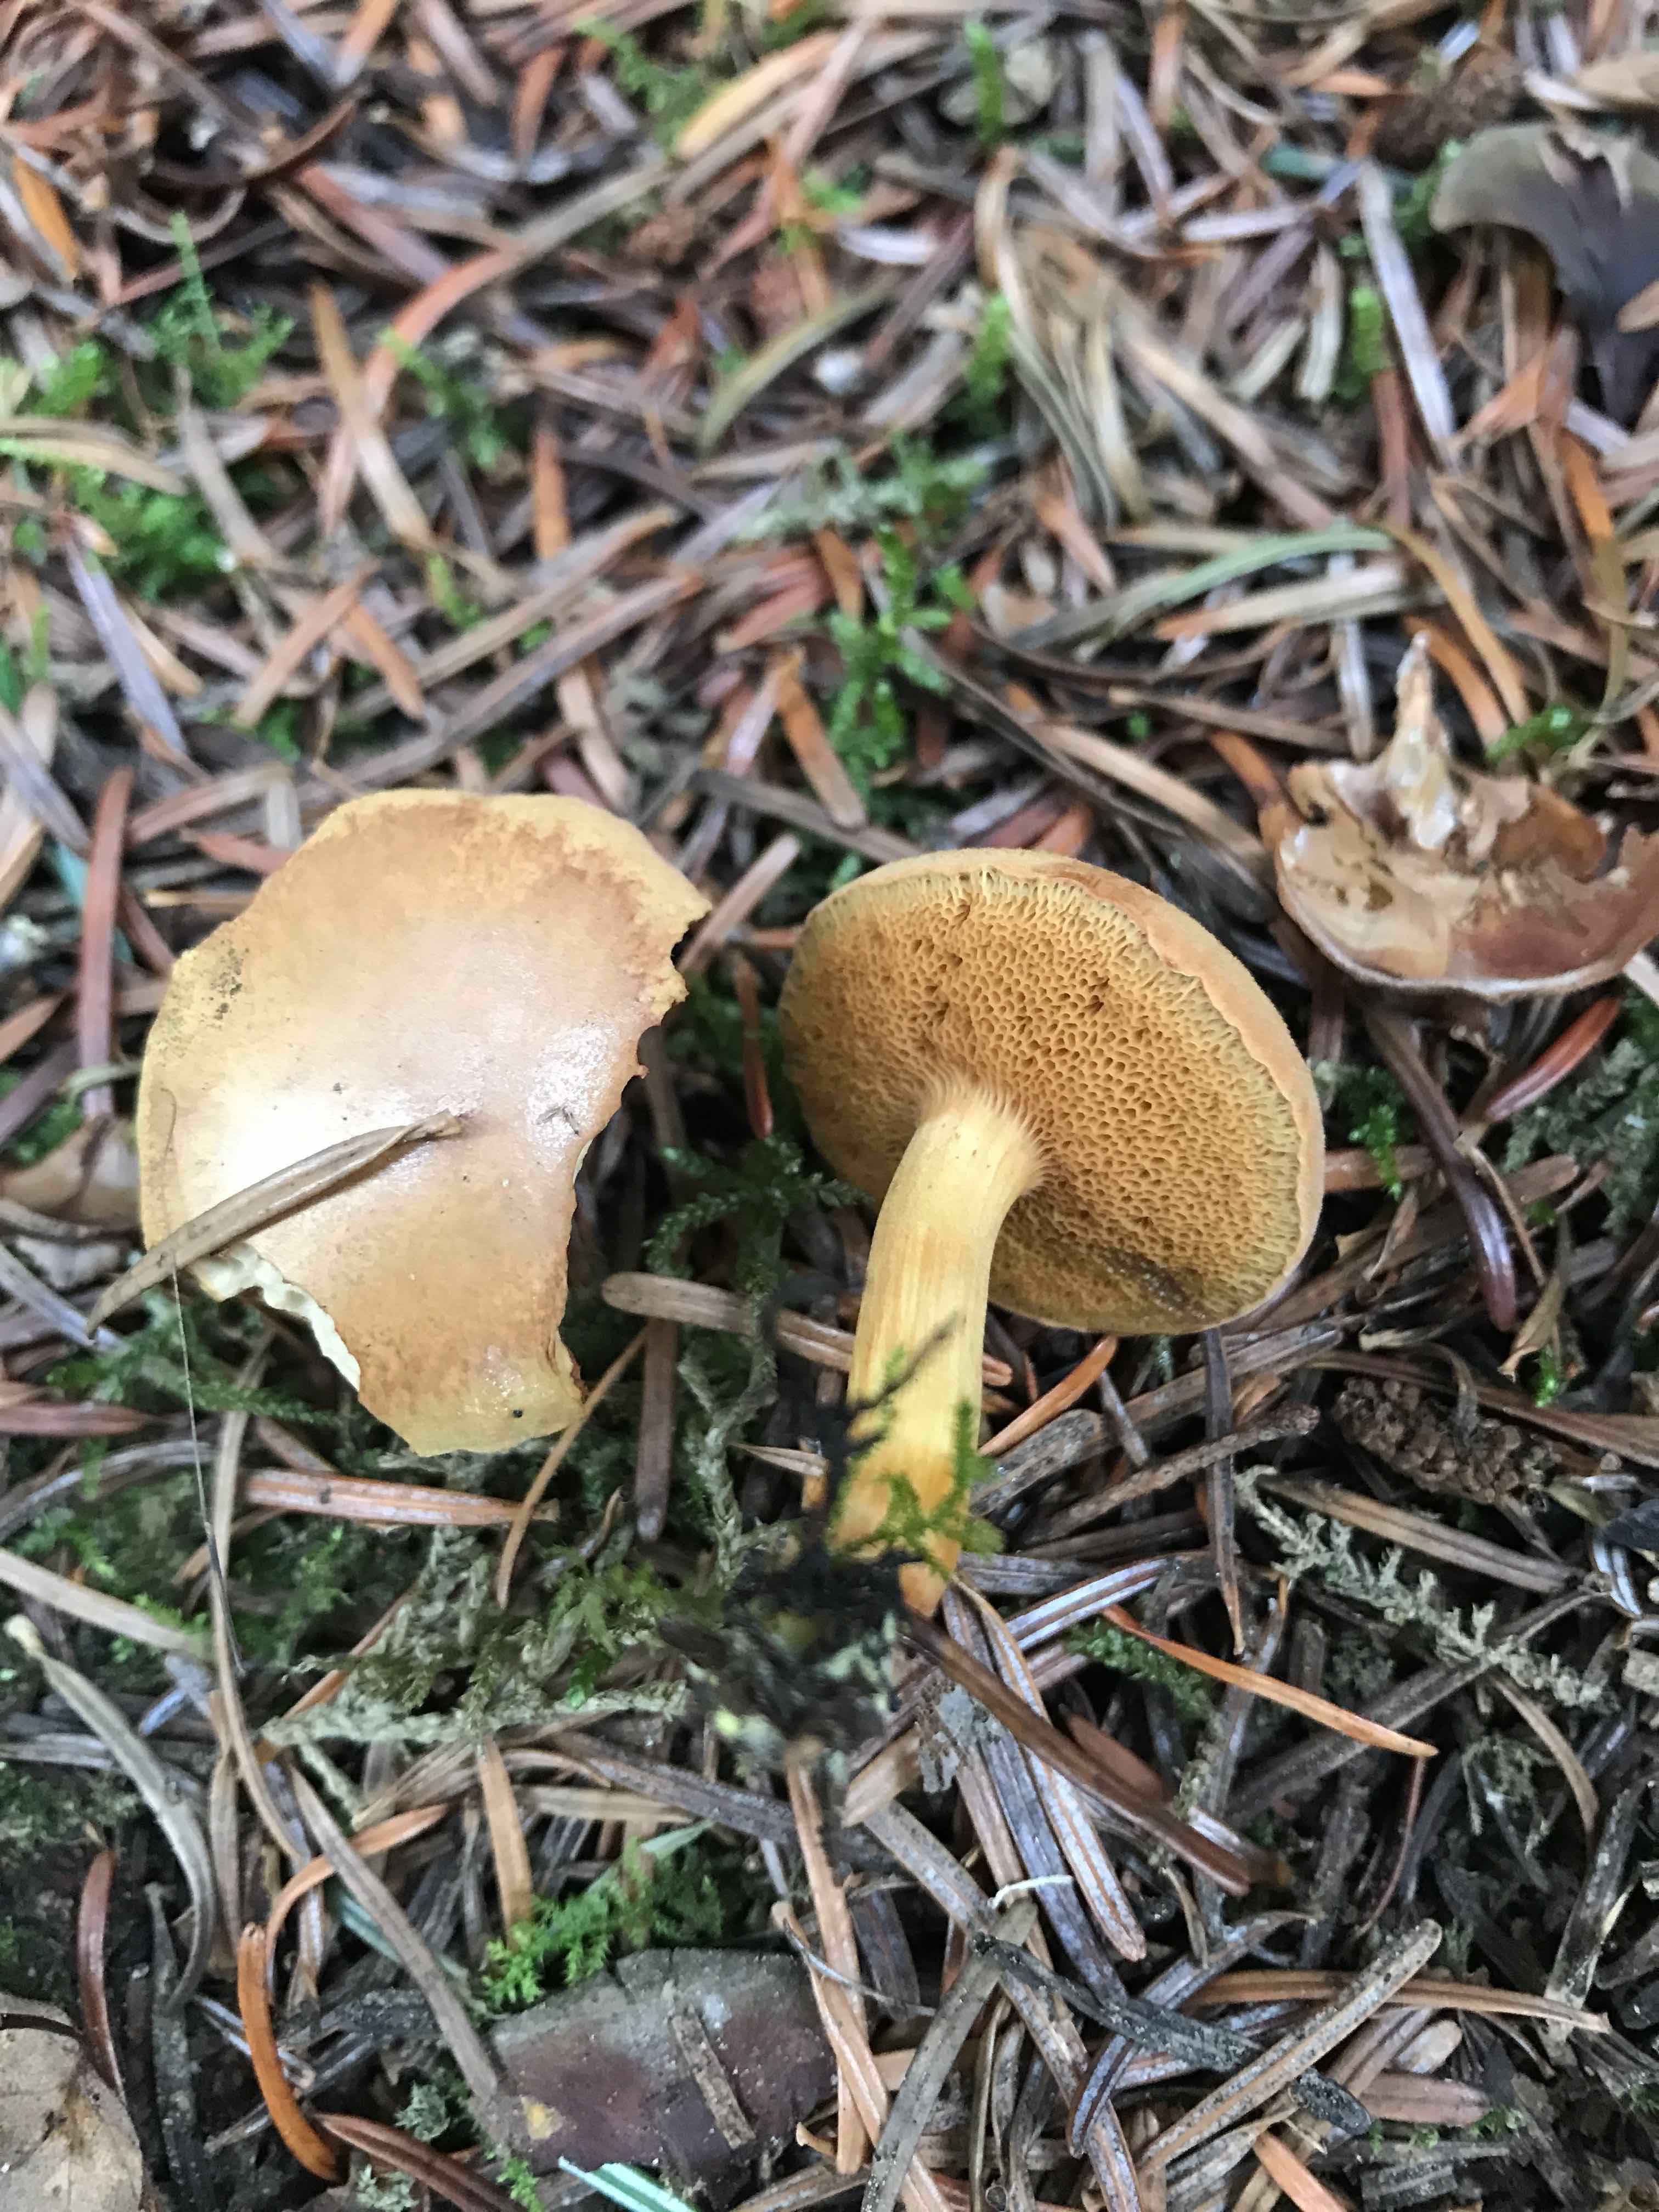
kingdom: Fungi
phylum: Basidiomycota
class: Agaricomycetes
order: Boletales
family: Boletaceae
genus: Chalciporus
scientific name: Chalciporus piperatus
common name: peberrørhat
